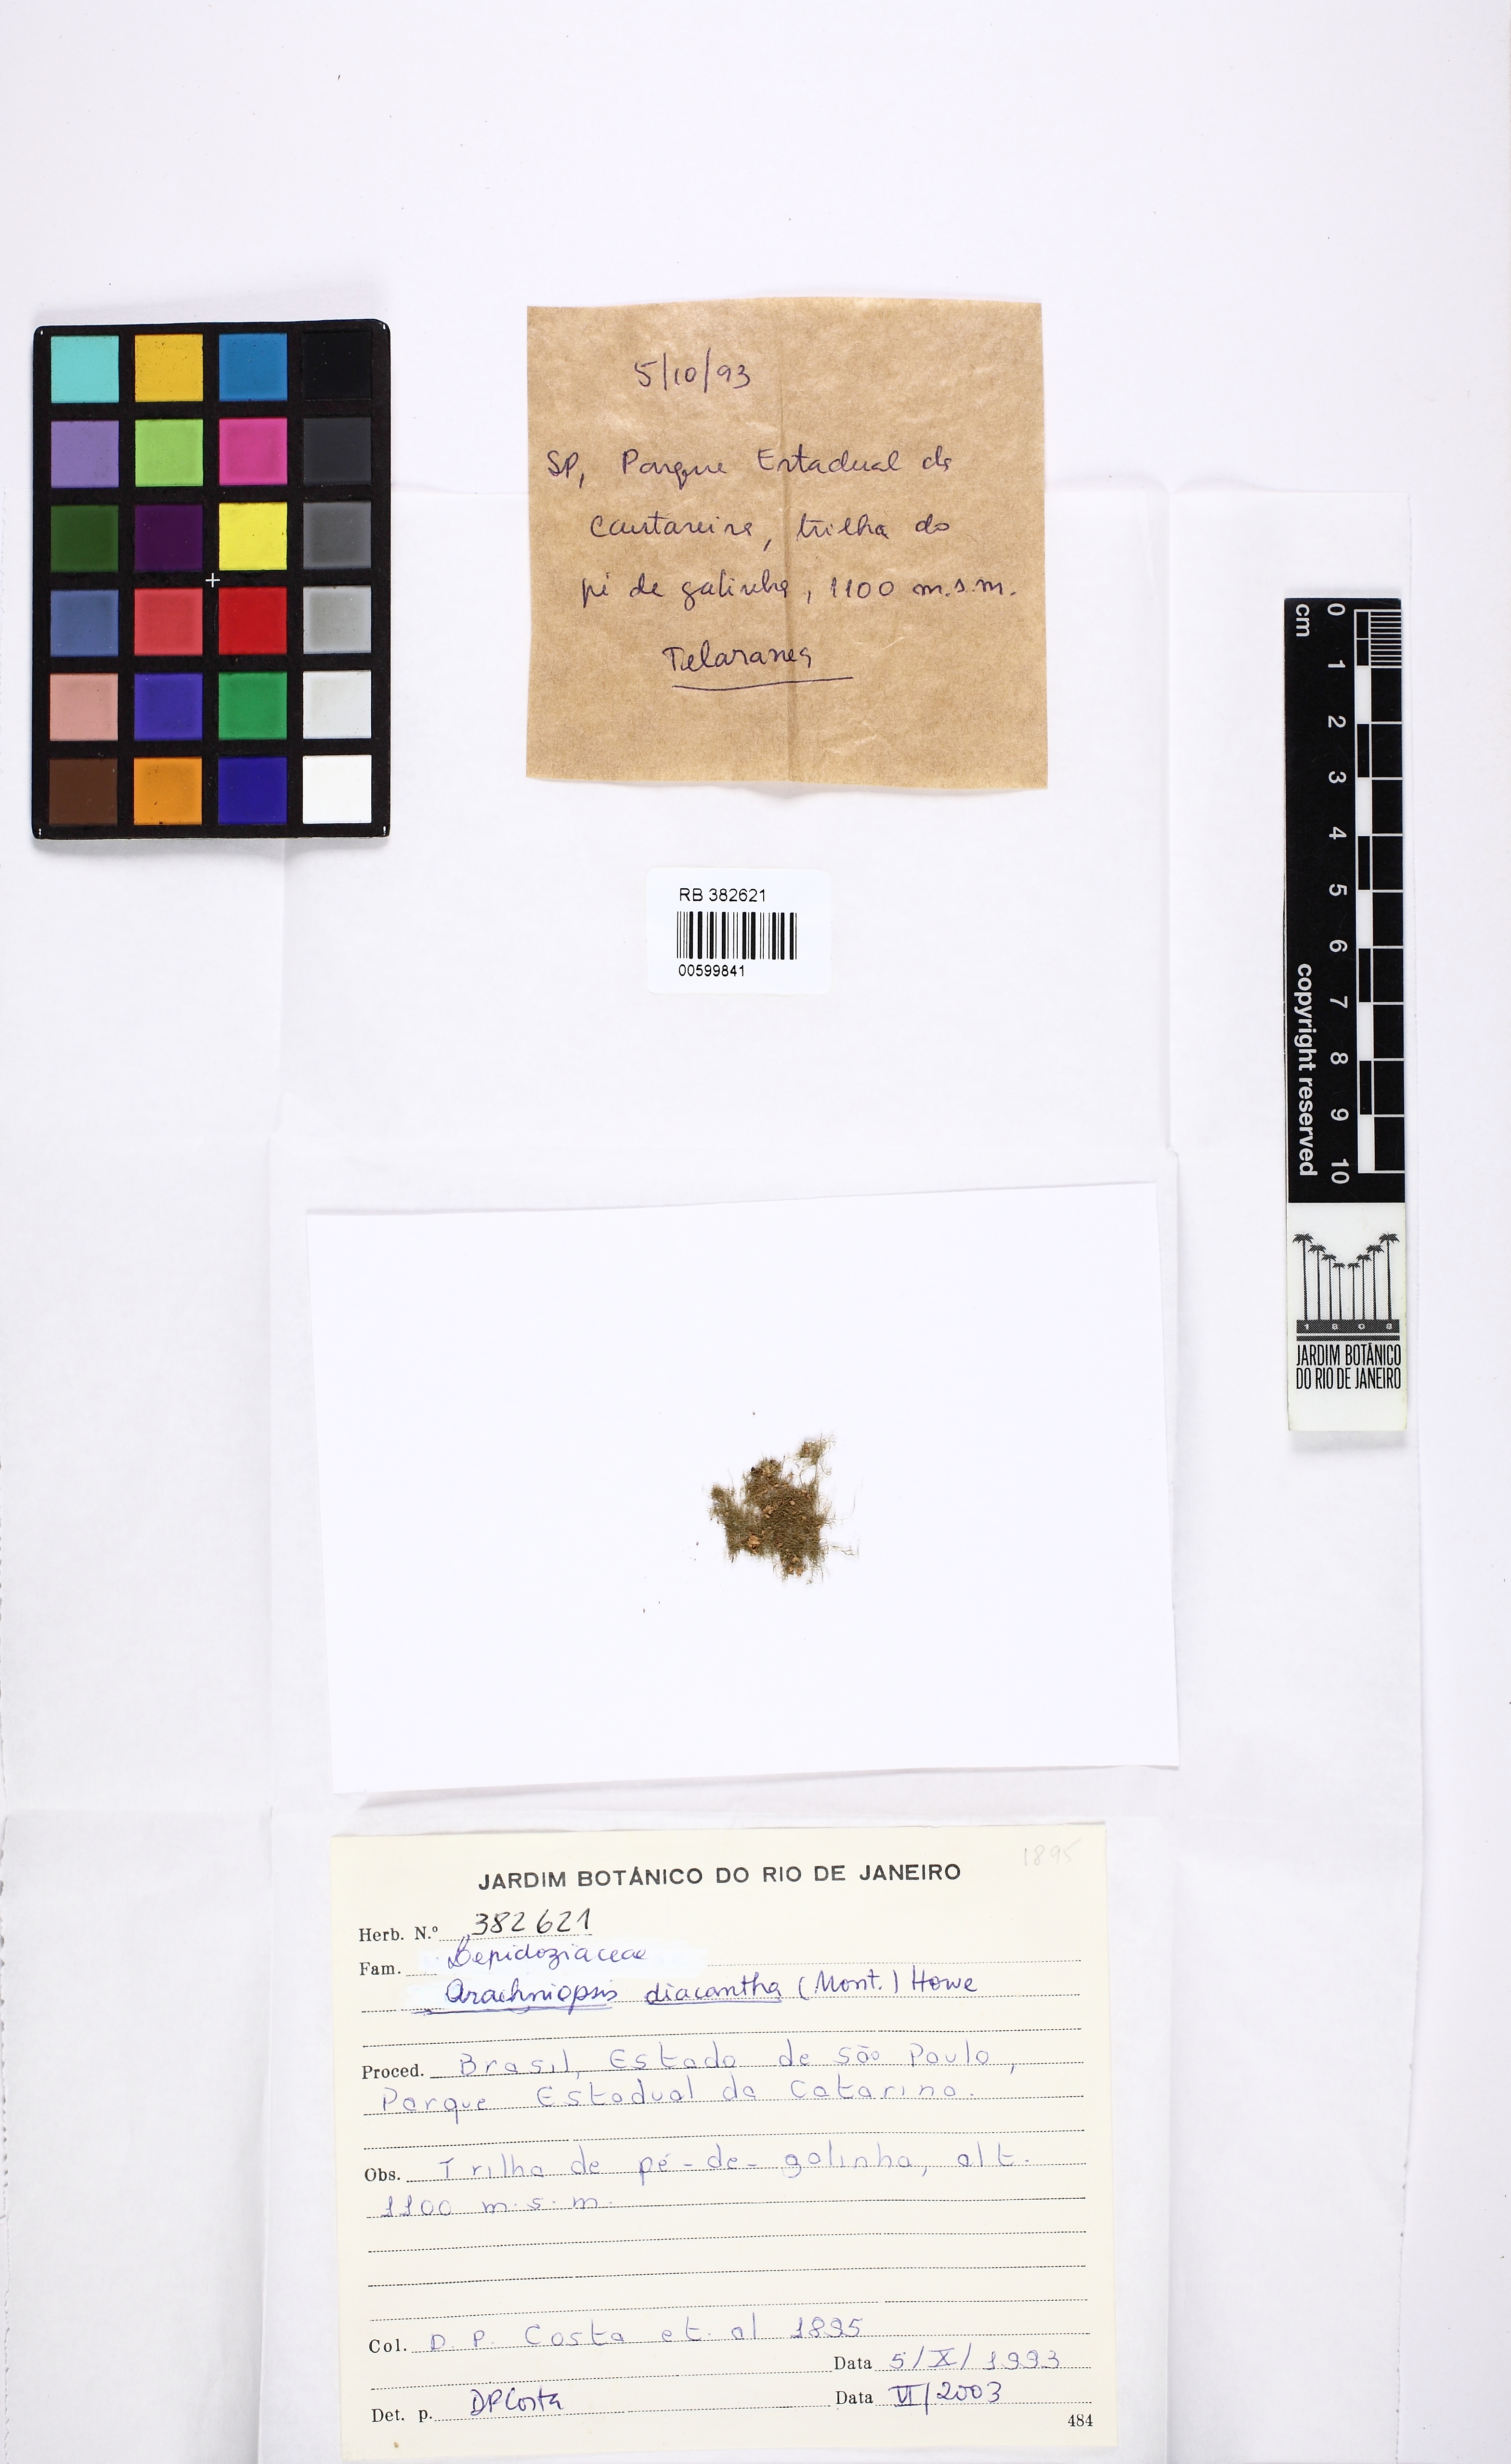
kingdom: Plantae
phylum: Marchantiophyta
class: Jungermanniopsida
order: Jungermanniales
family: Lepidoziaceae
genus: Telaranea
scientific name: Telaranea diacantha
